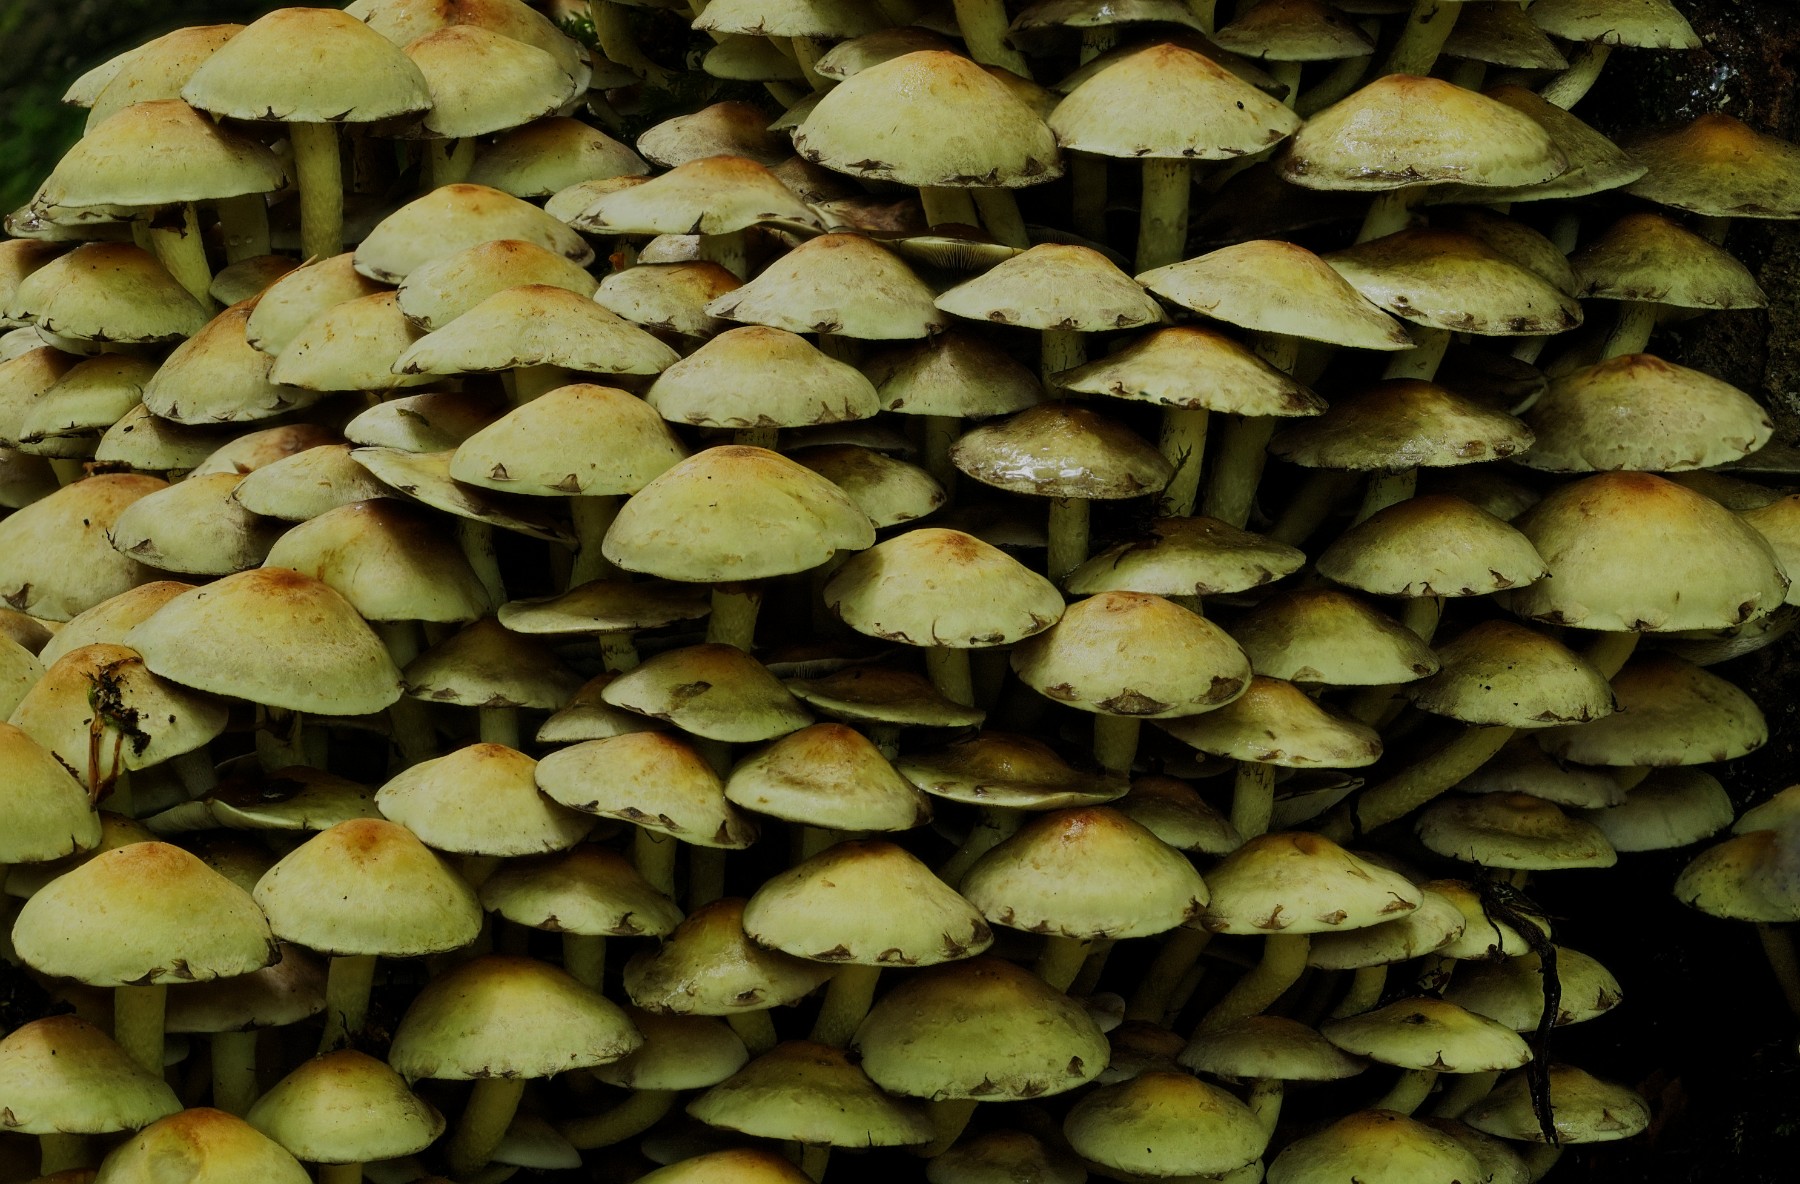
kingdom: Fungi
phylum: Basidiomycota
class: Agaricomycetes
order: Agaricales
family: Strophariaceae
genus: Hypholoma
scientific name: Hypholoma fasciculare
